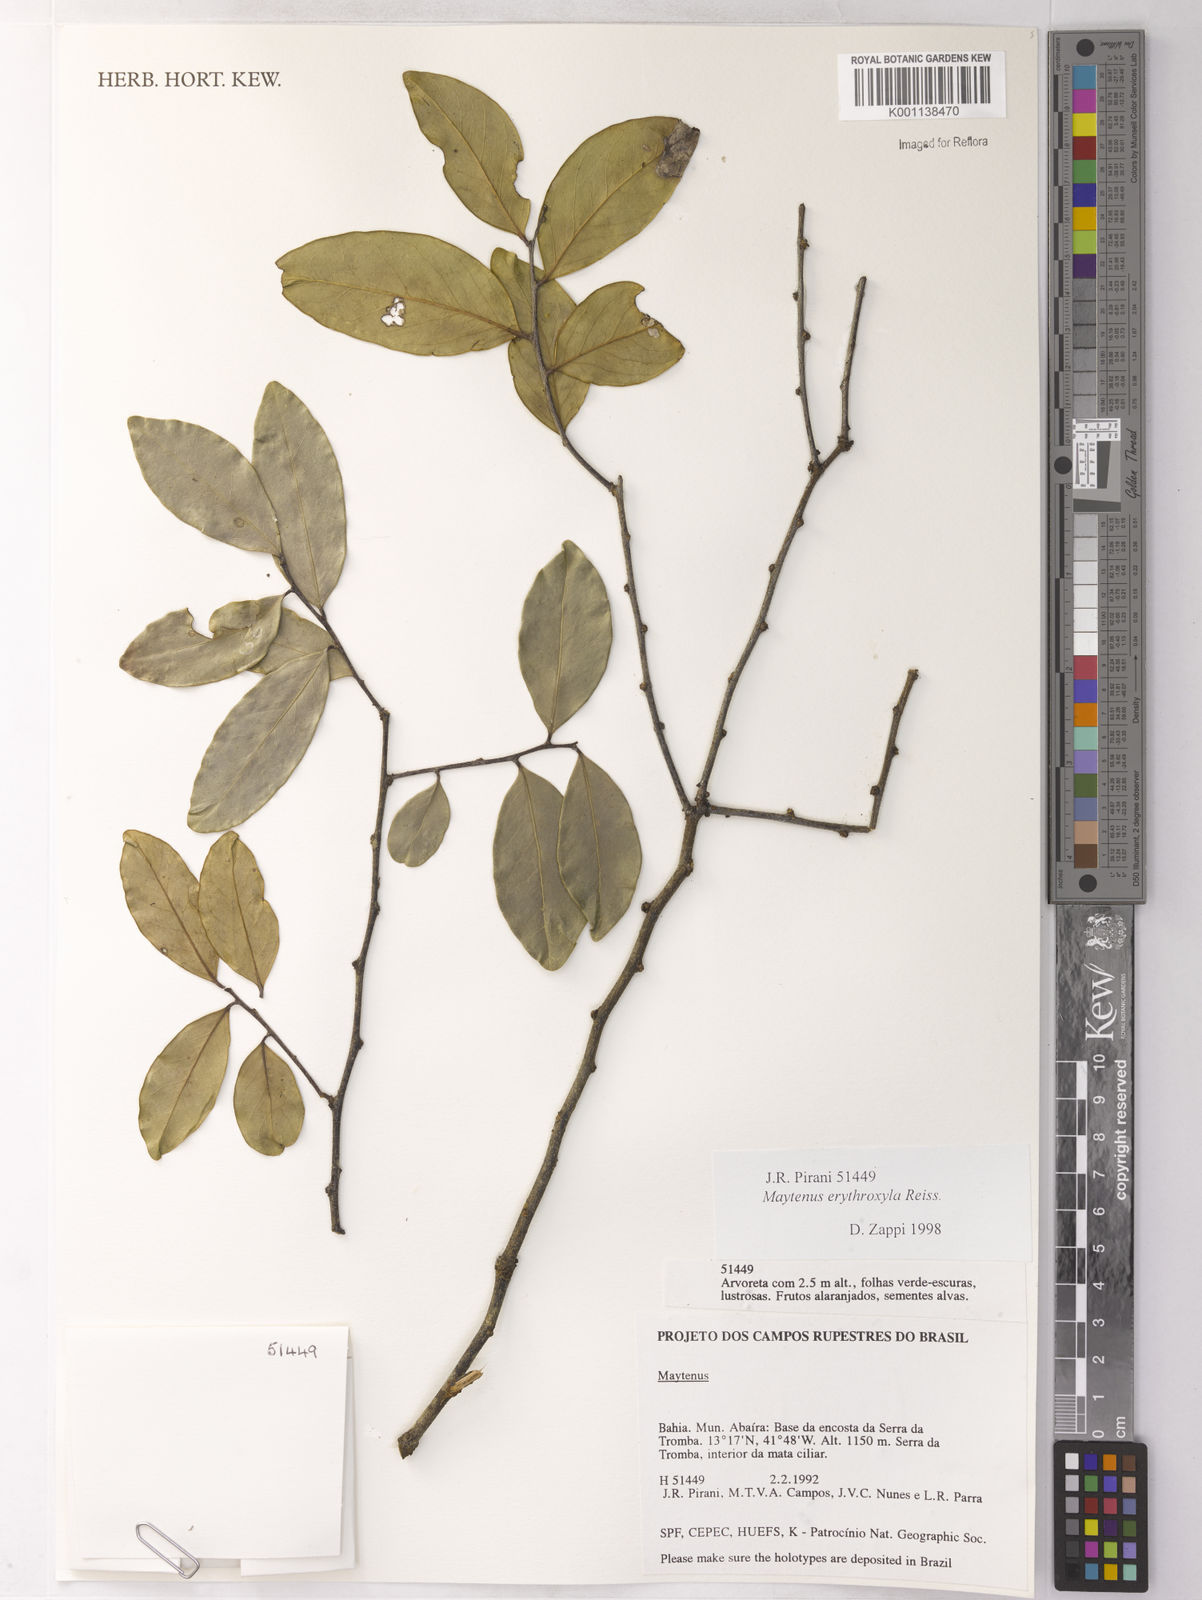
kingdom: Plantae
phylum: Tracheophyta
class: Magnoliopsida
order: Celastrales
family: Celastraceae
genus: Monteverdia
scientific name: Monteverdia erythroxylon
